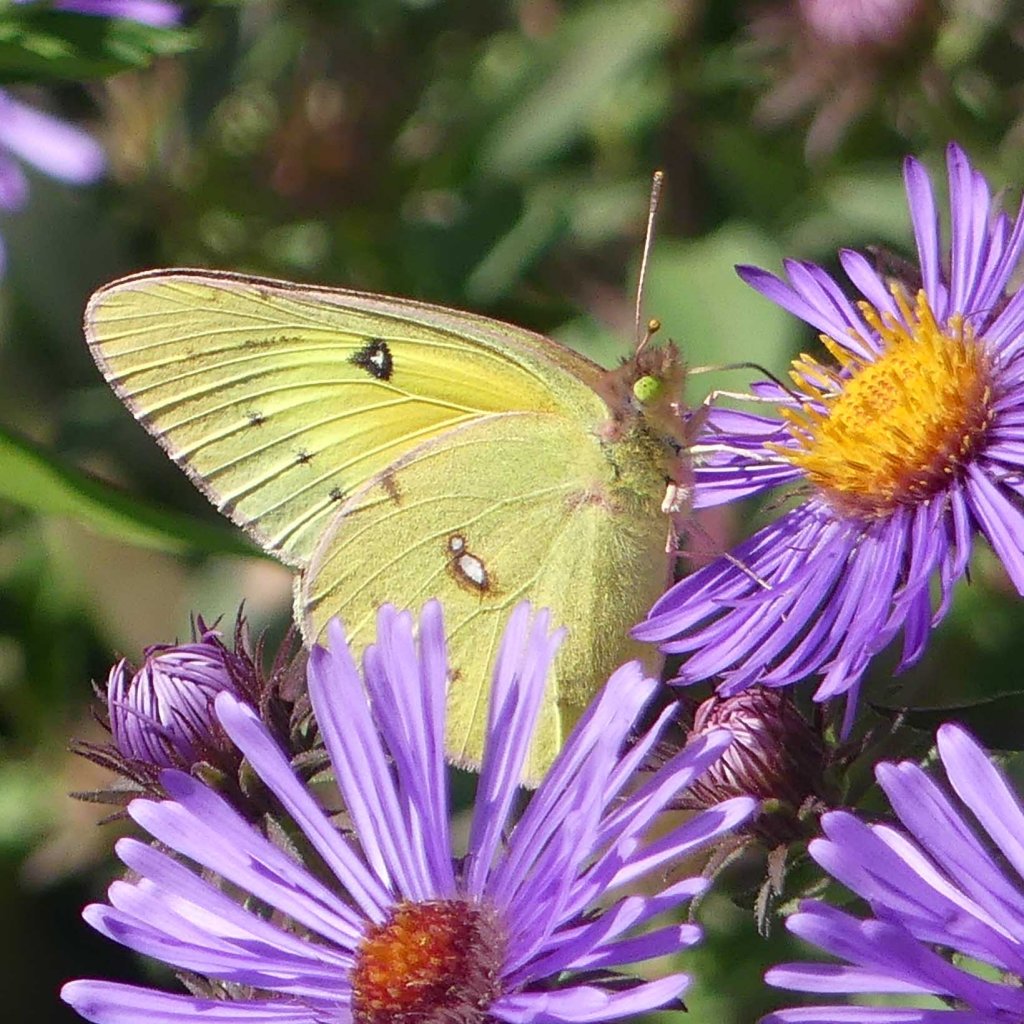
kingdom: Animalia
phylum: Arthropoda
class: Insecta
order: Lepidoptera
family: Pieridae
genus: Colias
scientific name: Colias eurytheme
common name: Orange Sulphur
